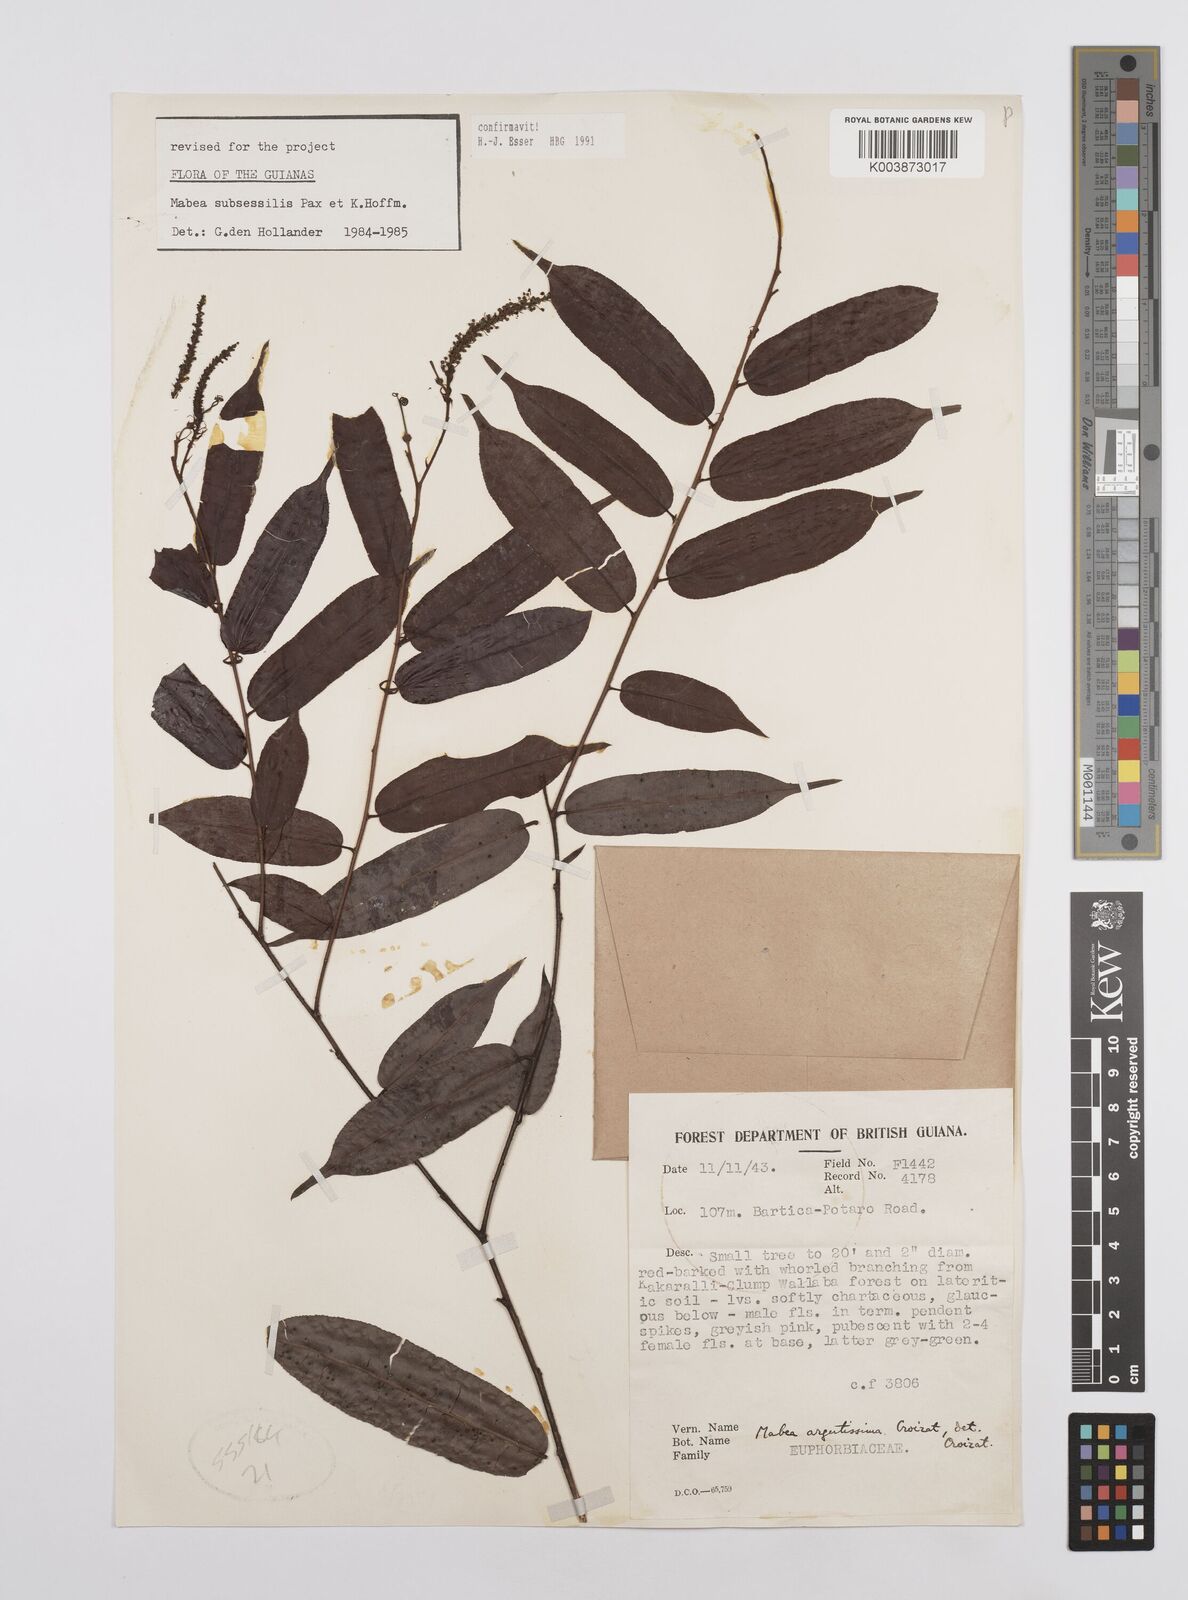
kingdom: Plantae
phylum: Tracheophyta
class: Magnoliopsida
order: Malpighiales
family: Euphorbiaceae
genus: Mabea
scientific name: Mabea subsessilis
